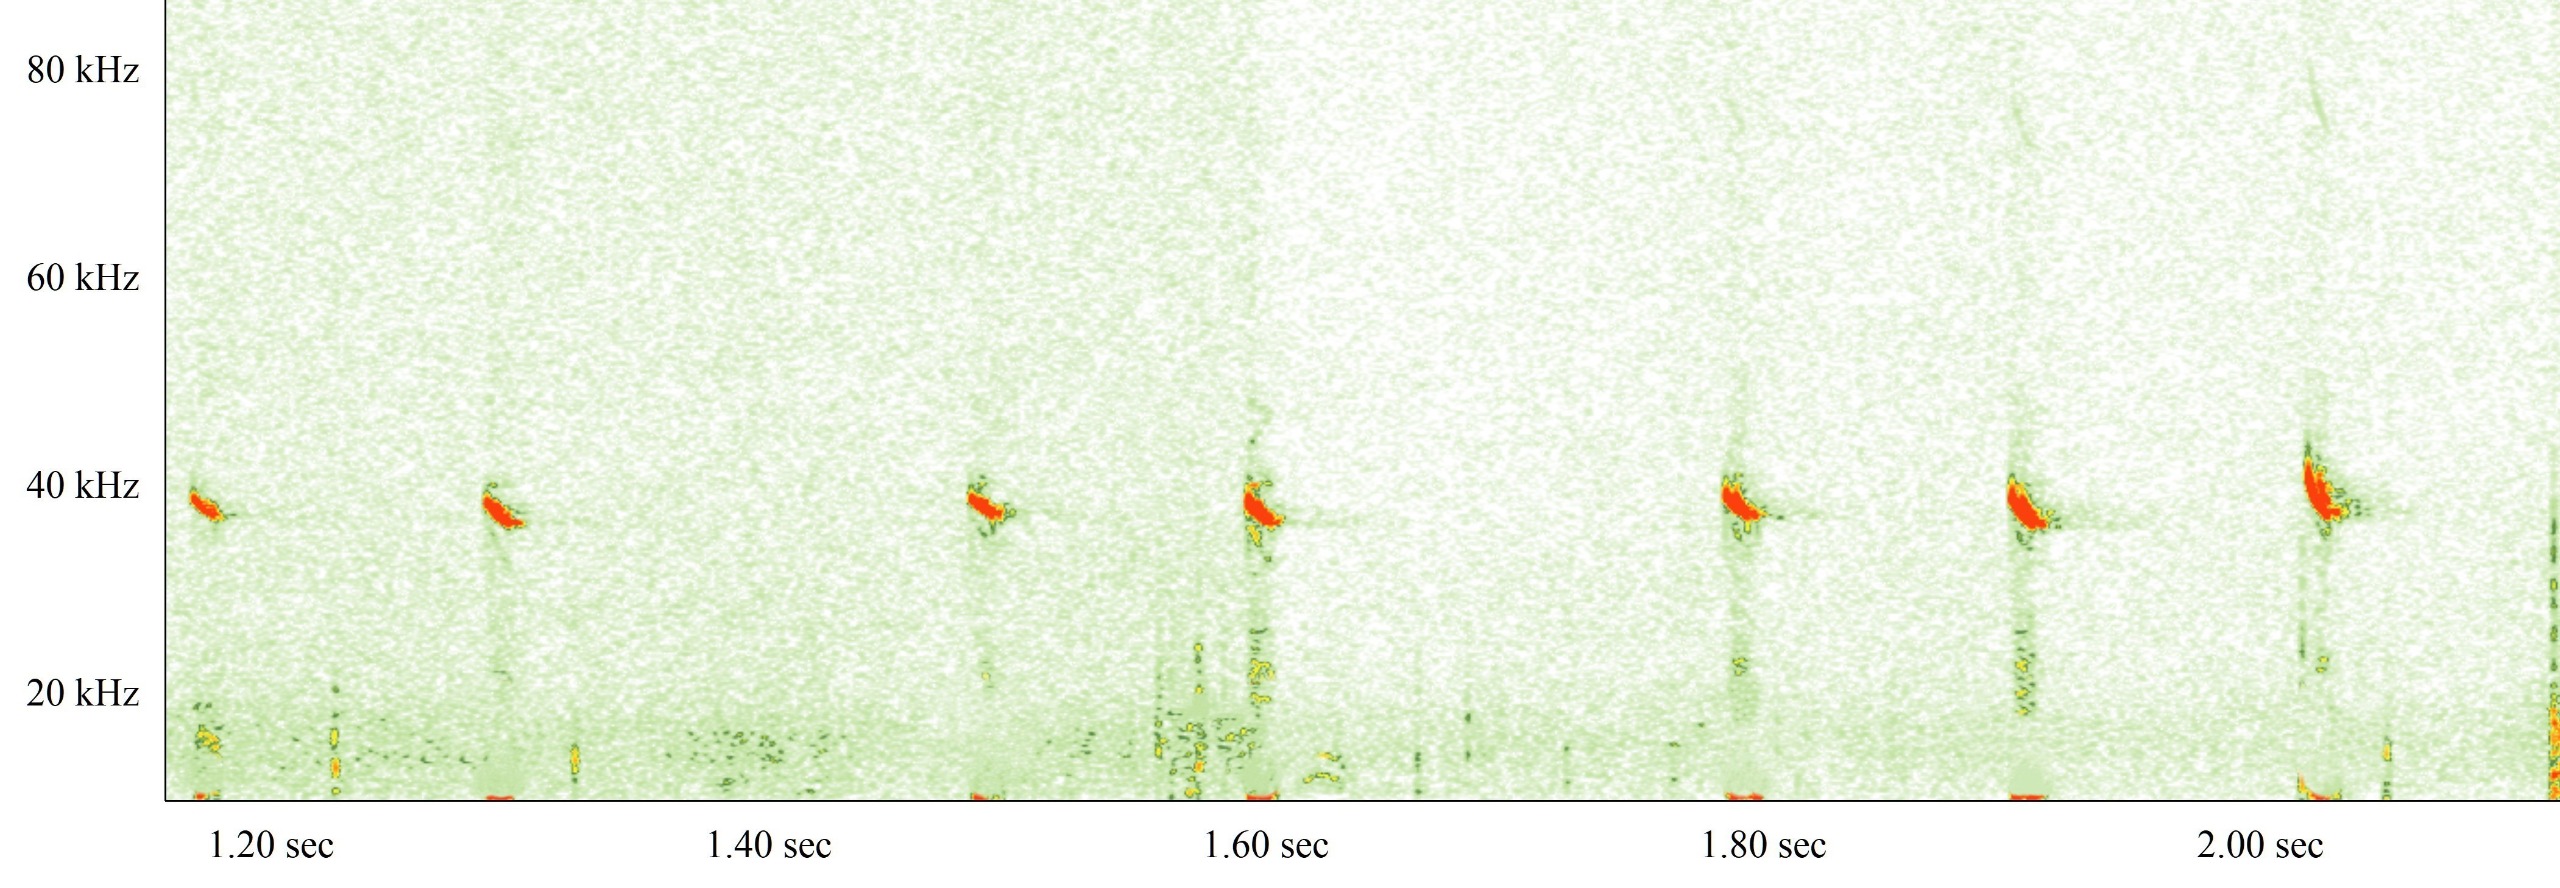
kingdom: Animalia
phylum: Chordata
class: Mammalia
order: Chiroptera
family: Vespertilionidae
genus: Pipistrellus
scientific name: Pipistrellus nathusii
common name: Troldflagermus
